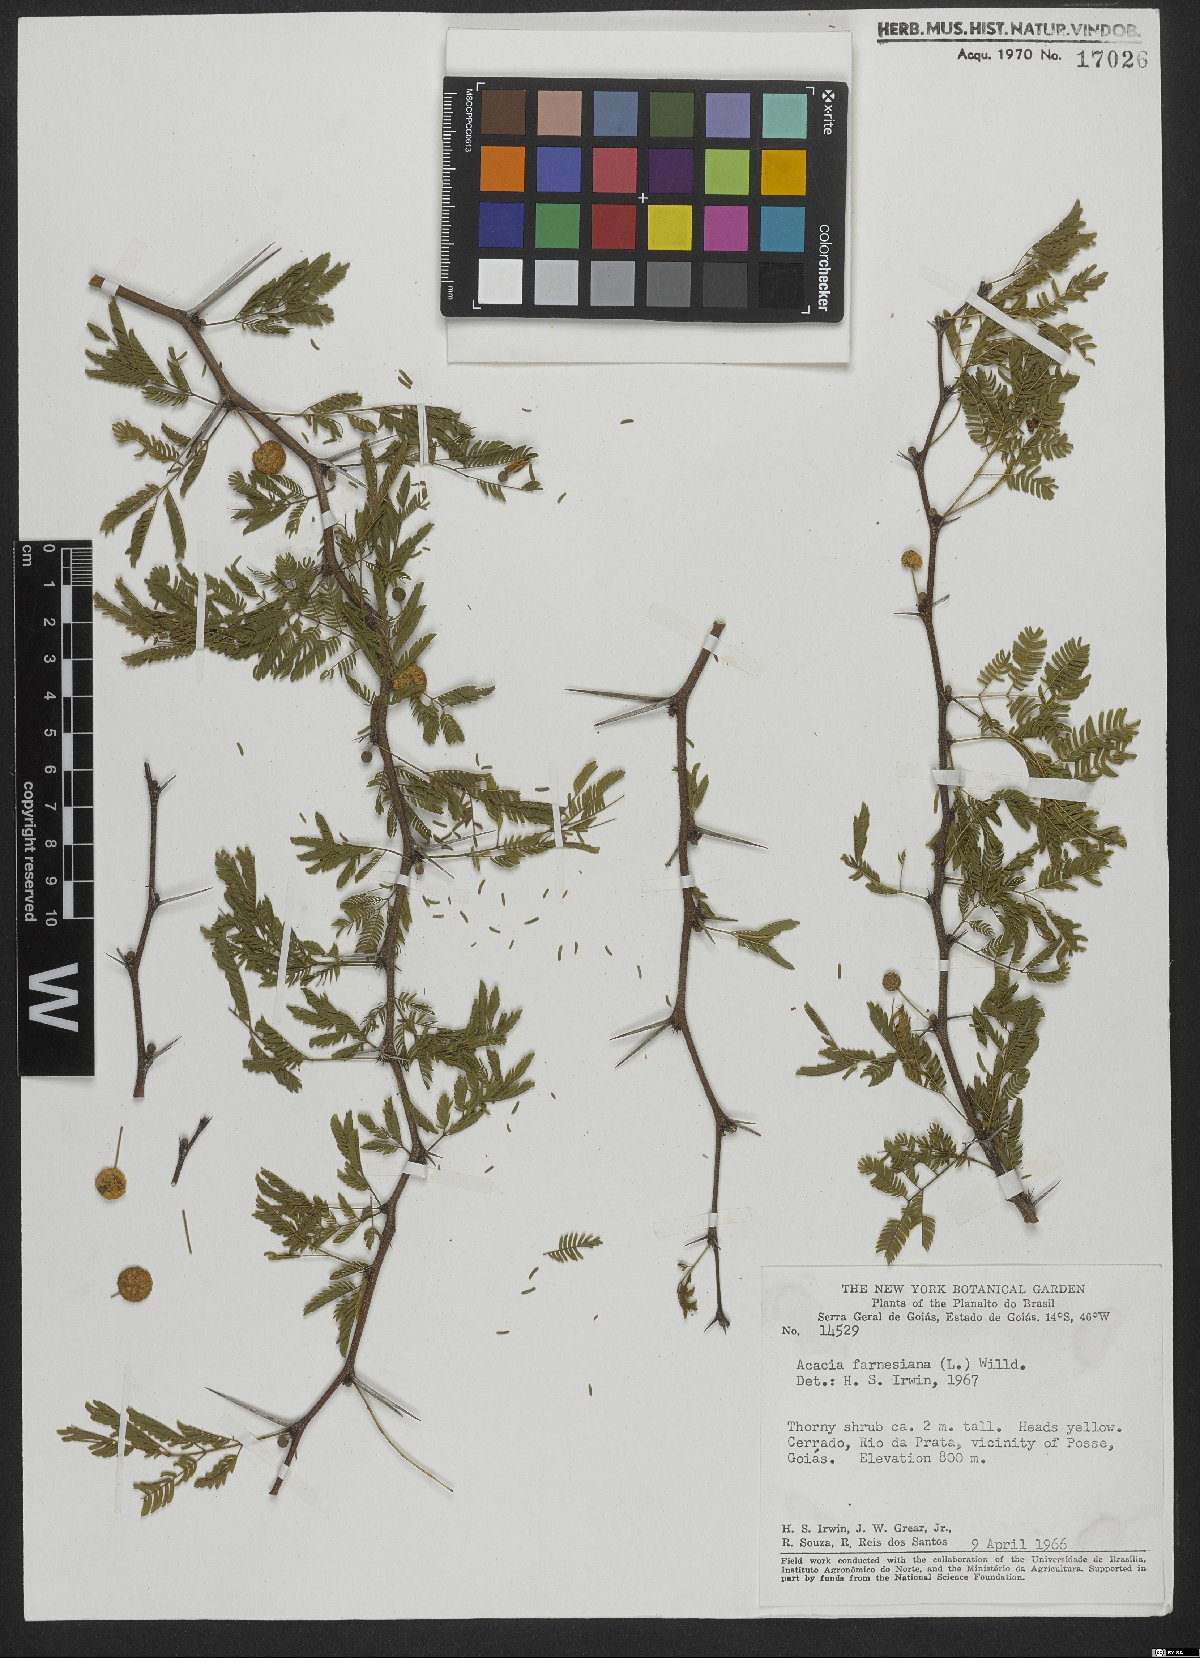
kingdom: Plantae
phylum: Tracheophyta
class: Magnoliopsida
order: Fabales
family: Fabaceae
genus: Vachellia
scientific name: Vachellia farnesiana
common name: Sweet acacia
